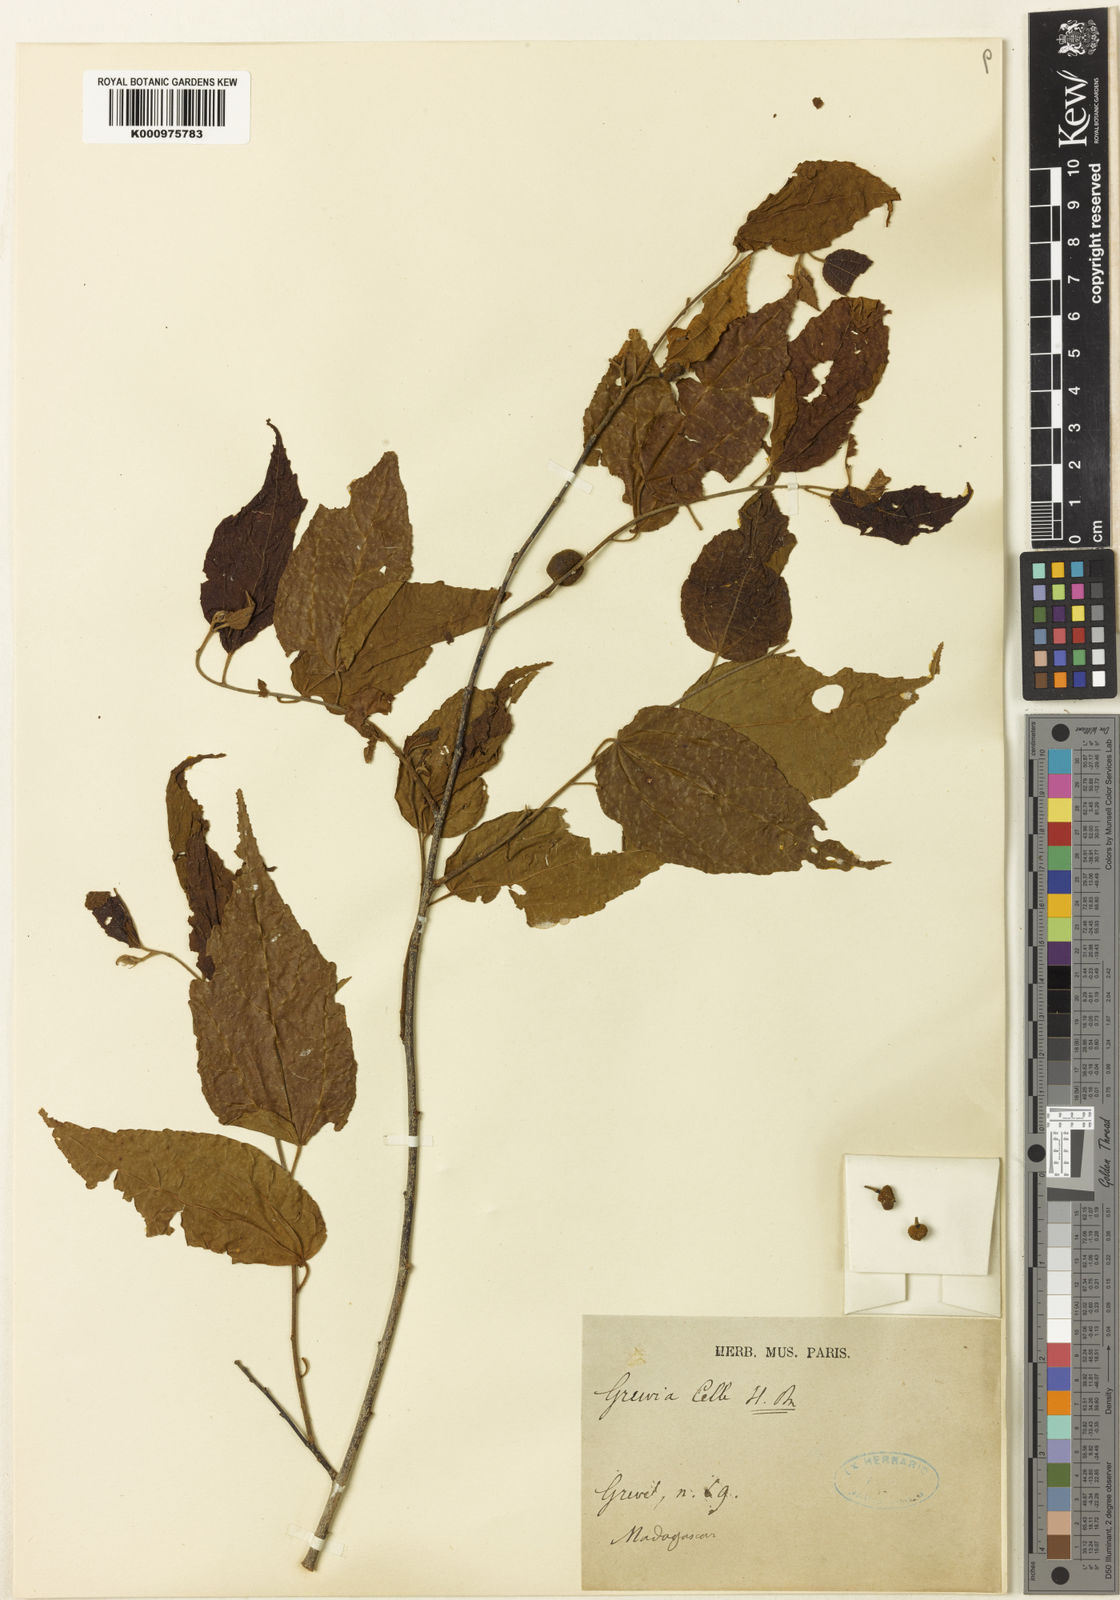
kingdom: Plantae
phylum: Tracheophyta
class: Magnoliopsida
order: Malvales
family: Malvaceae
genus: Grewia
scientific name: Grewia grandidieri
